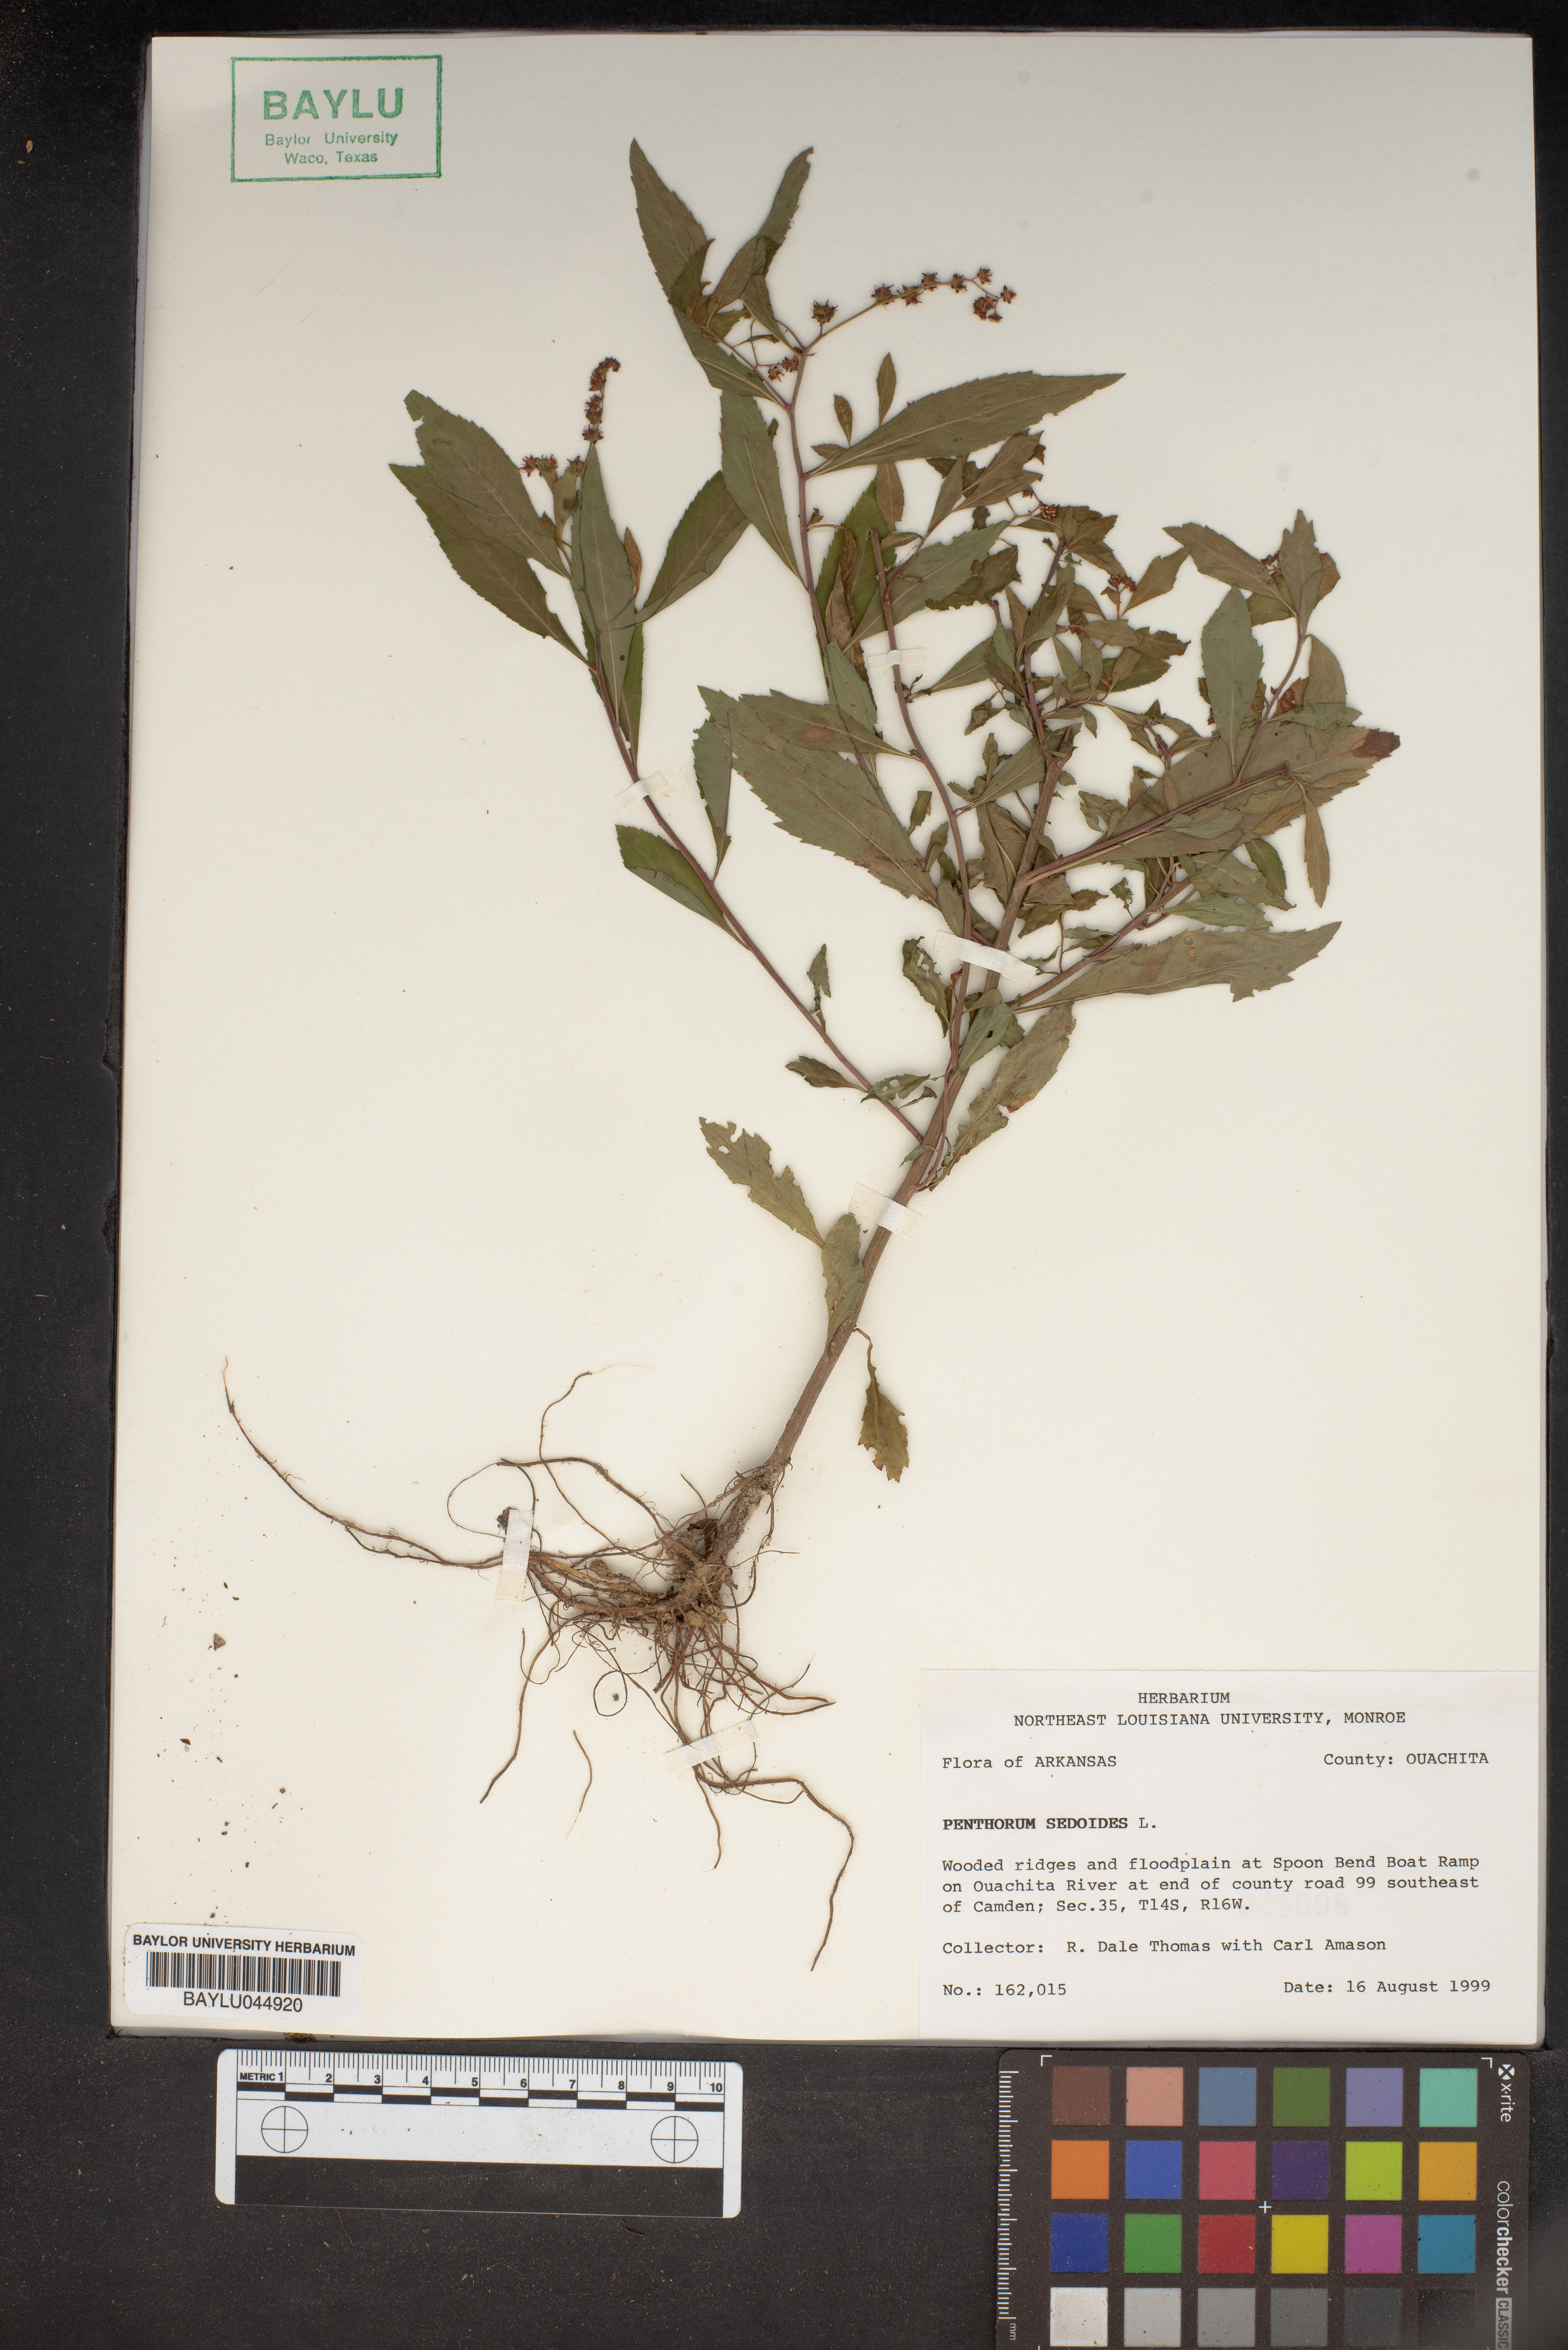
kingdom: Plantae
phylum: Tracheophyta
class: Magnoliopsida
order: Saxifragales
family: Penthoraceae
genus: Penthorum
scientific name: Penthorum sedoides
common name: Ditch stonecrop
